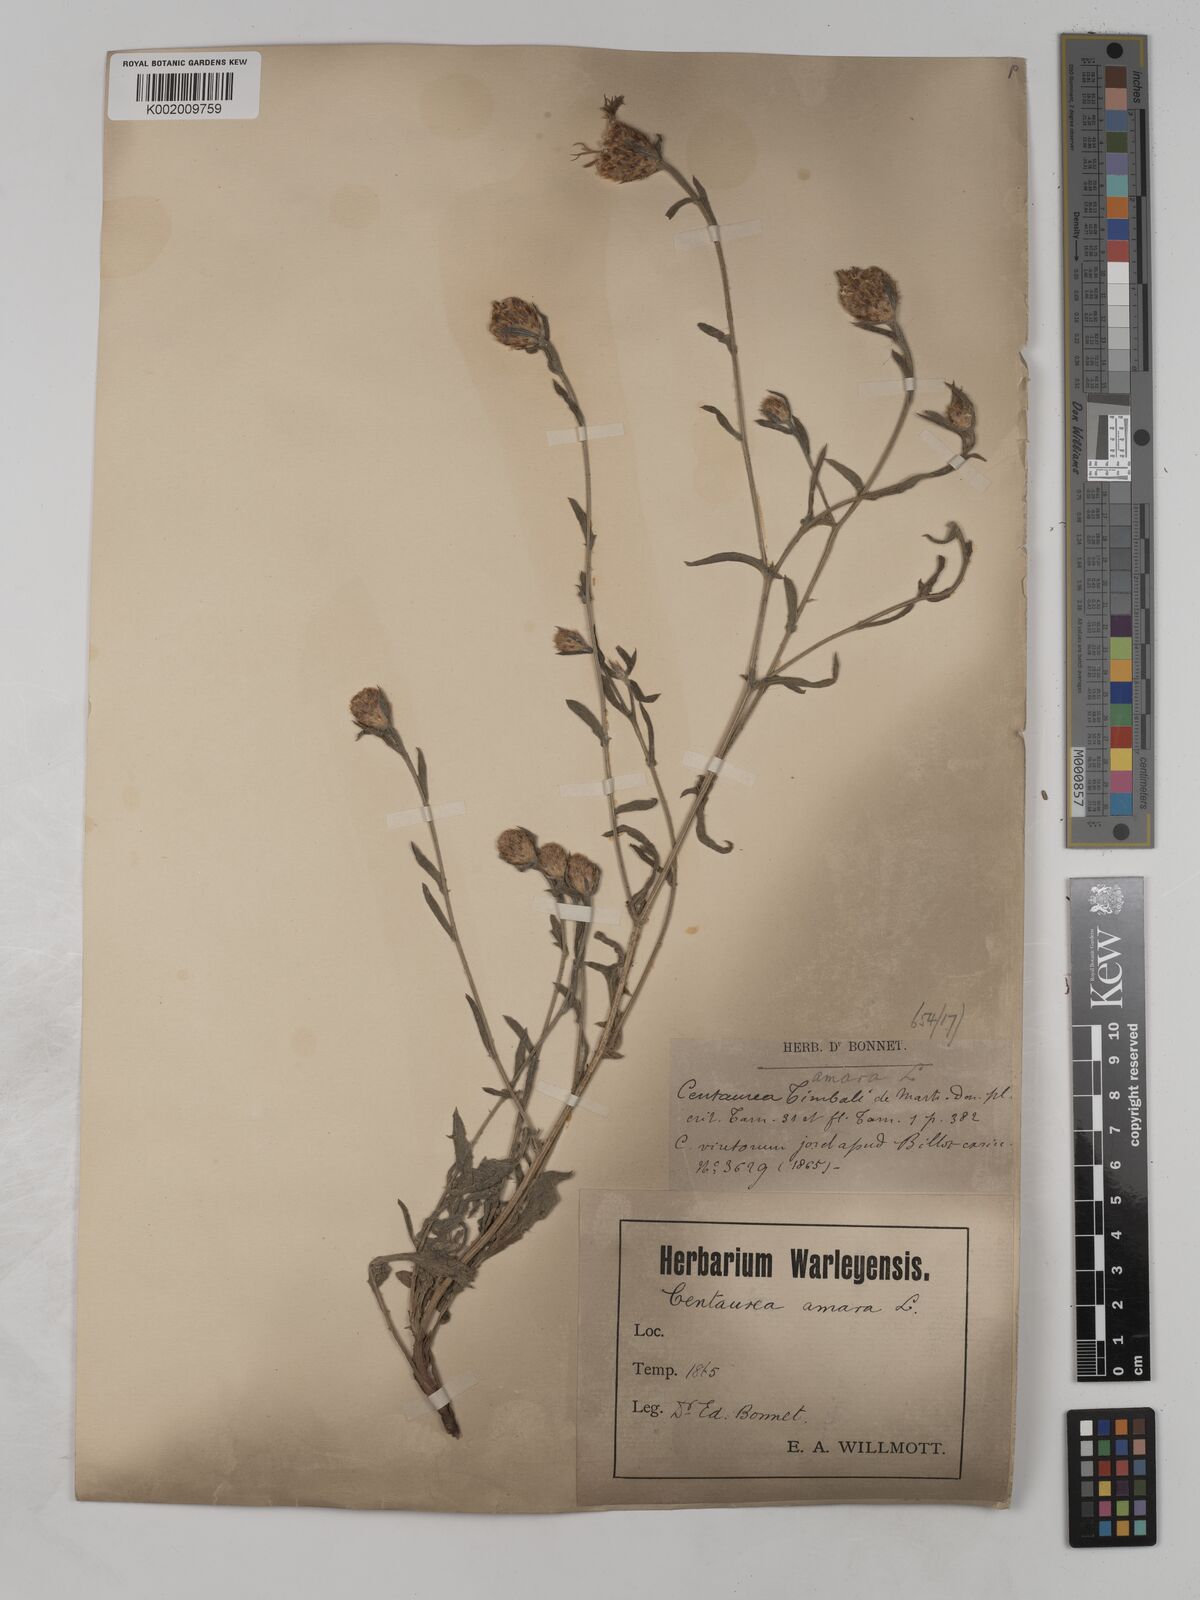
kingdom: Plantae
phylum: Tracheophyta
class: Magnoliopsida
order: Asterales
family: Asteraceae
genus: Centaurea
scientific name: Centaurea timbalii
